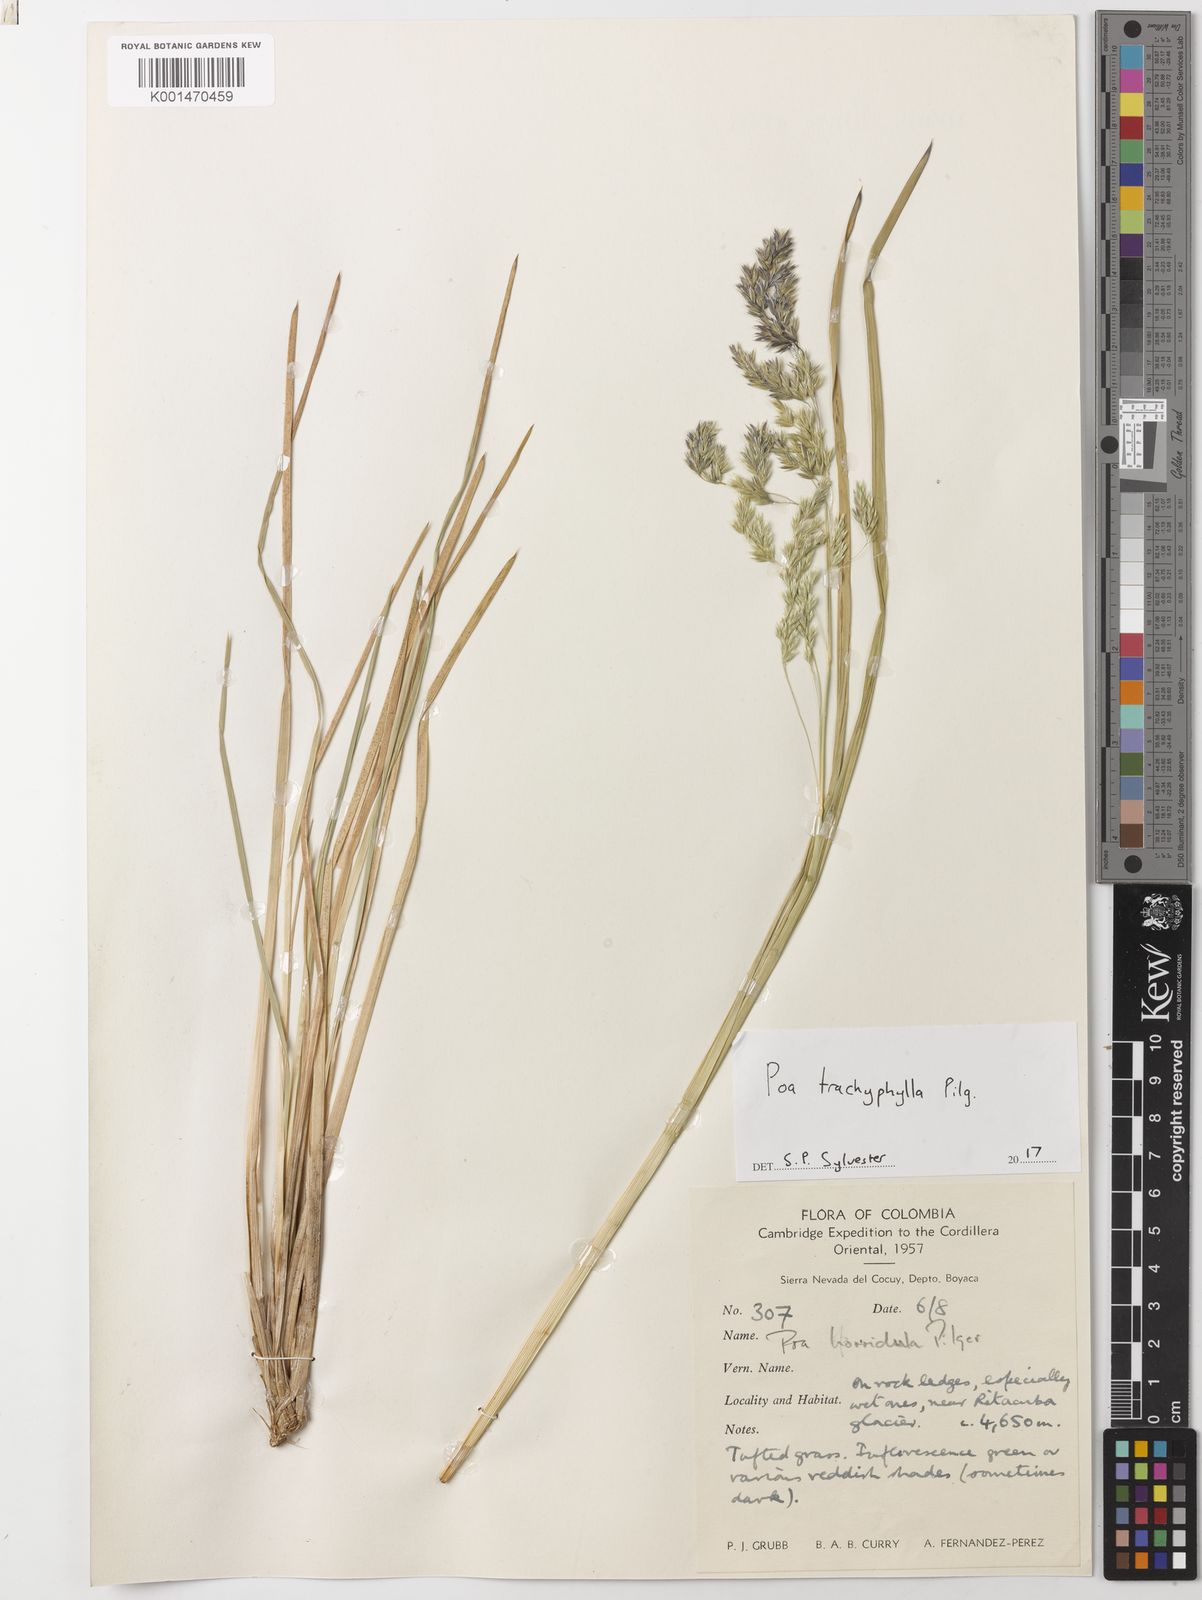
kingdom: Plantae
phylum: Tracheophyta
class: Liliopsida
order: Poales
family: Poaceae
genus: Poa
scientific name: Poa trachyphylla
